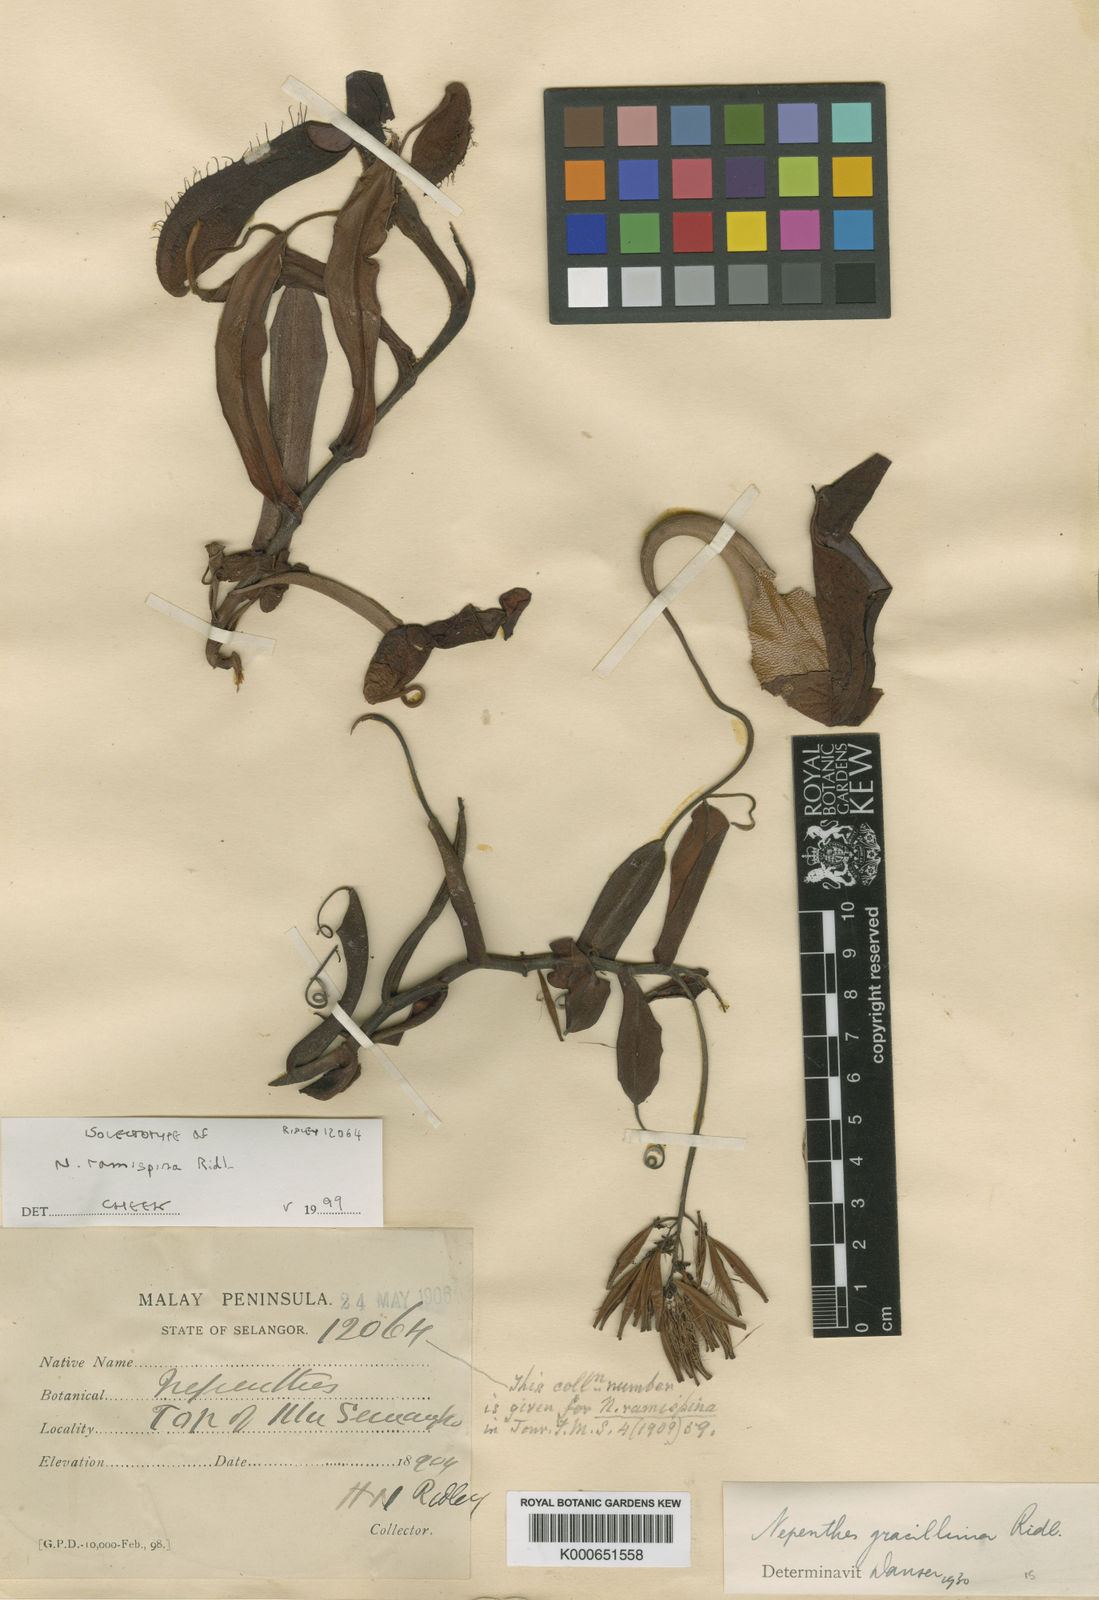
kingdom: Plantae
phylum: Tracheophyta
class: Magnoliopsida
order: Caryophyllales
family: Nepenthaceae
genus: Nepenthes
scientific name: Nepenthes ramispina
